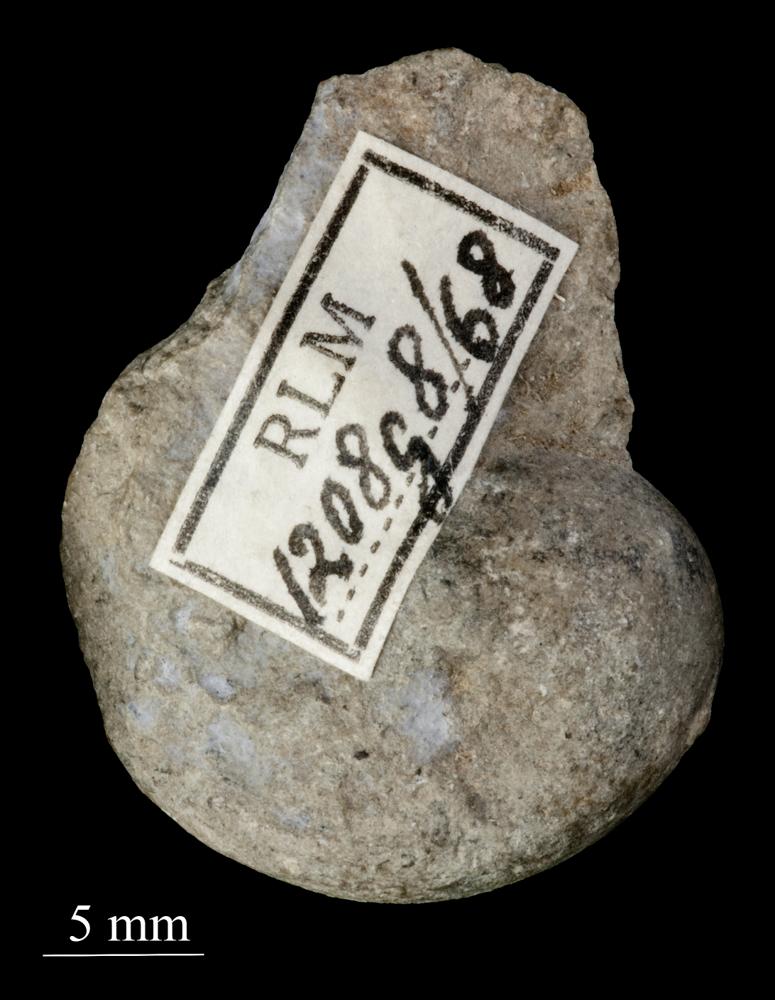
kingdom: Animalia
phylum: Mollusca
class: Gastropoda
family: Sinuitidae
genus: Sinuites
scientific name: Sinuites bilobatus
